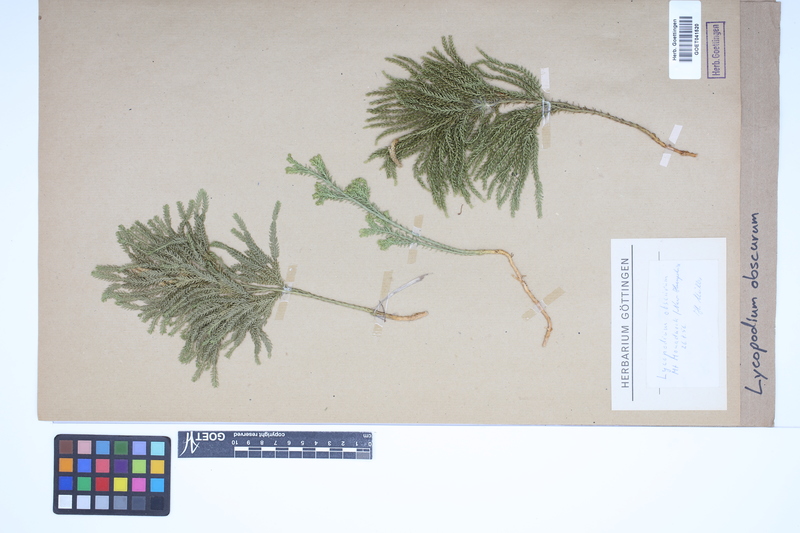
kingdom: Plantae
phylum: Tracheophyta
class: Lycopodiopsida
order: Lycopodiales
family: Lycopodiaceae
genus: Dendrolycopodium
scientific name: Dendrolycopodium obscurum
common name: Common ground-pine
